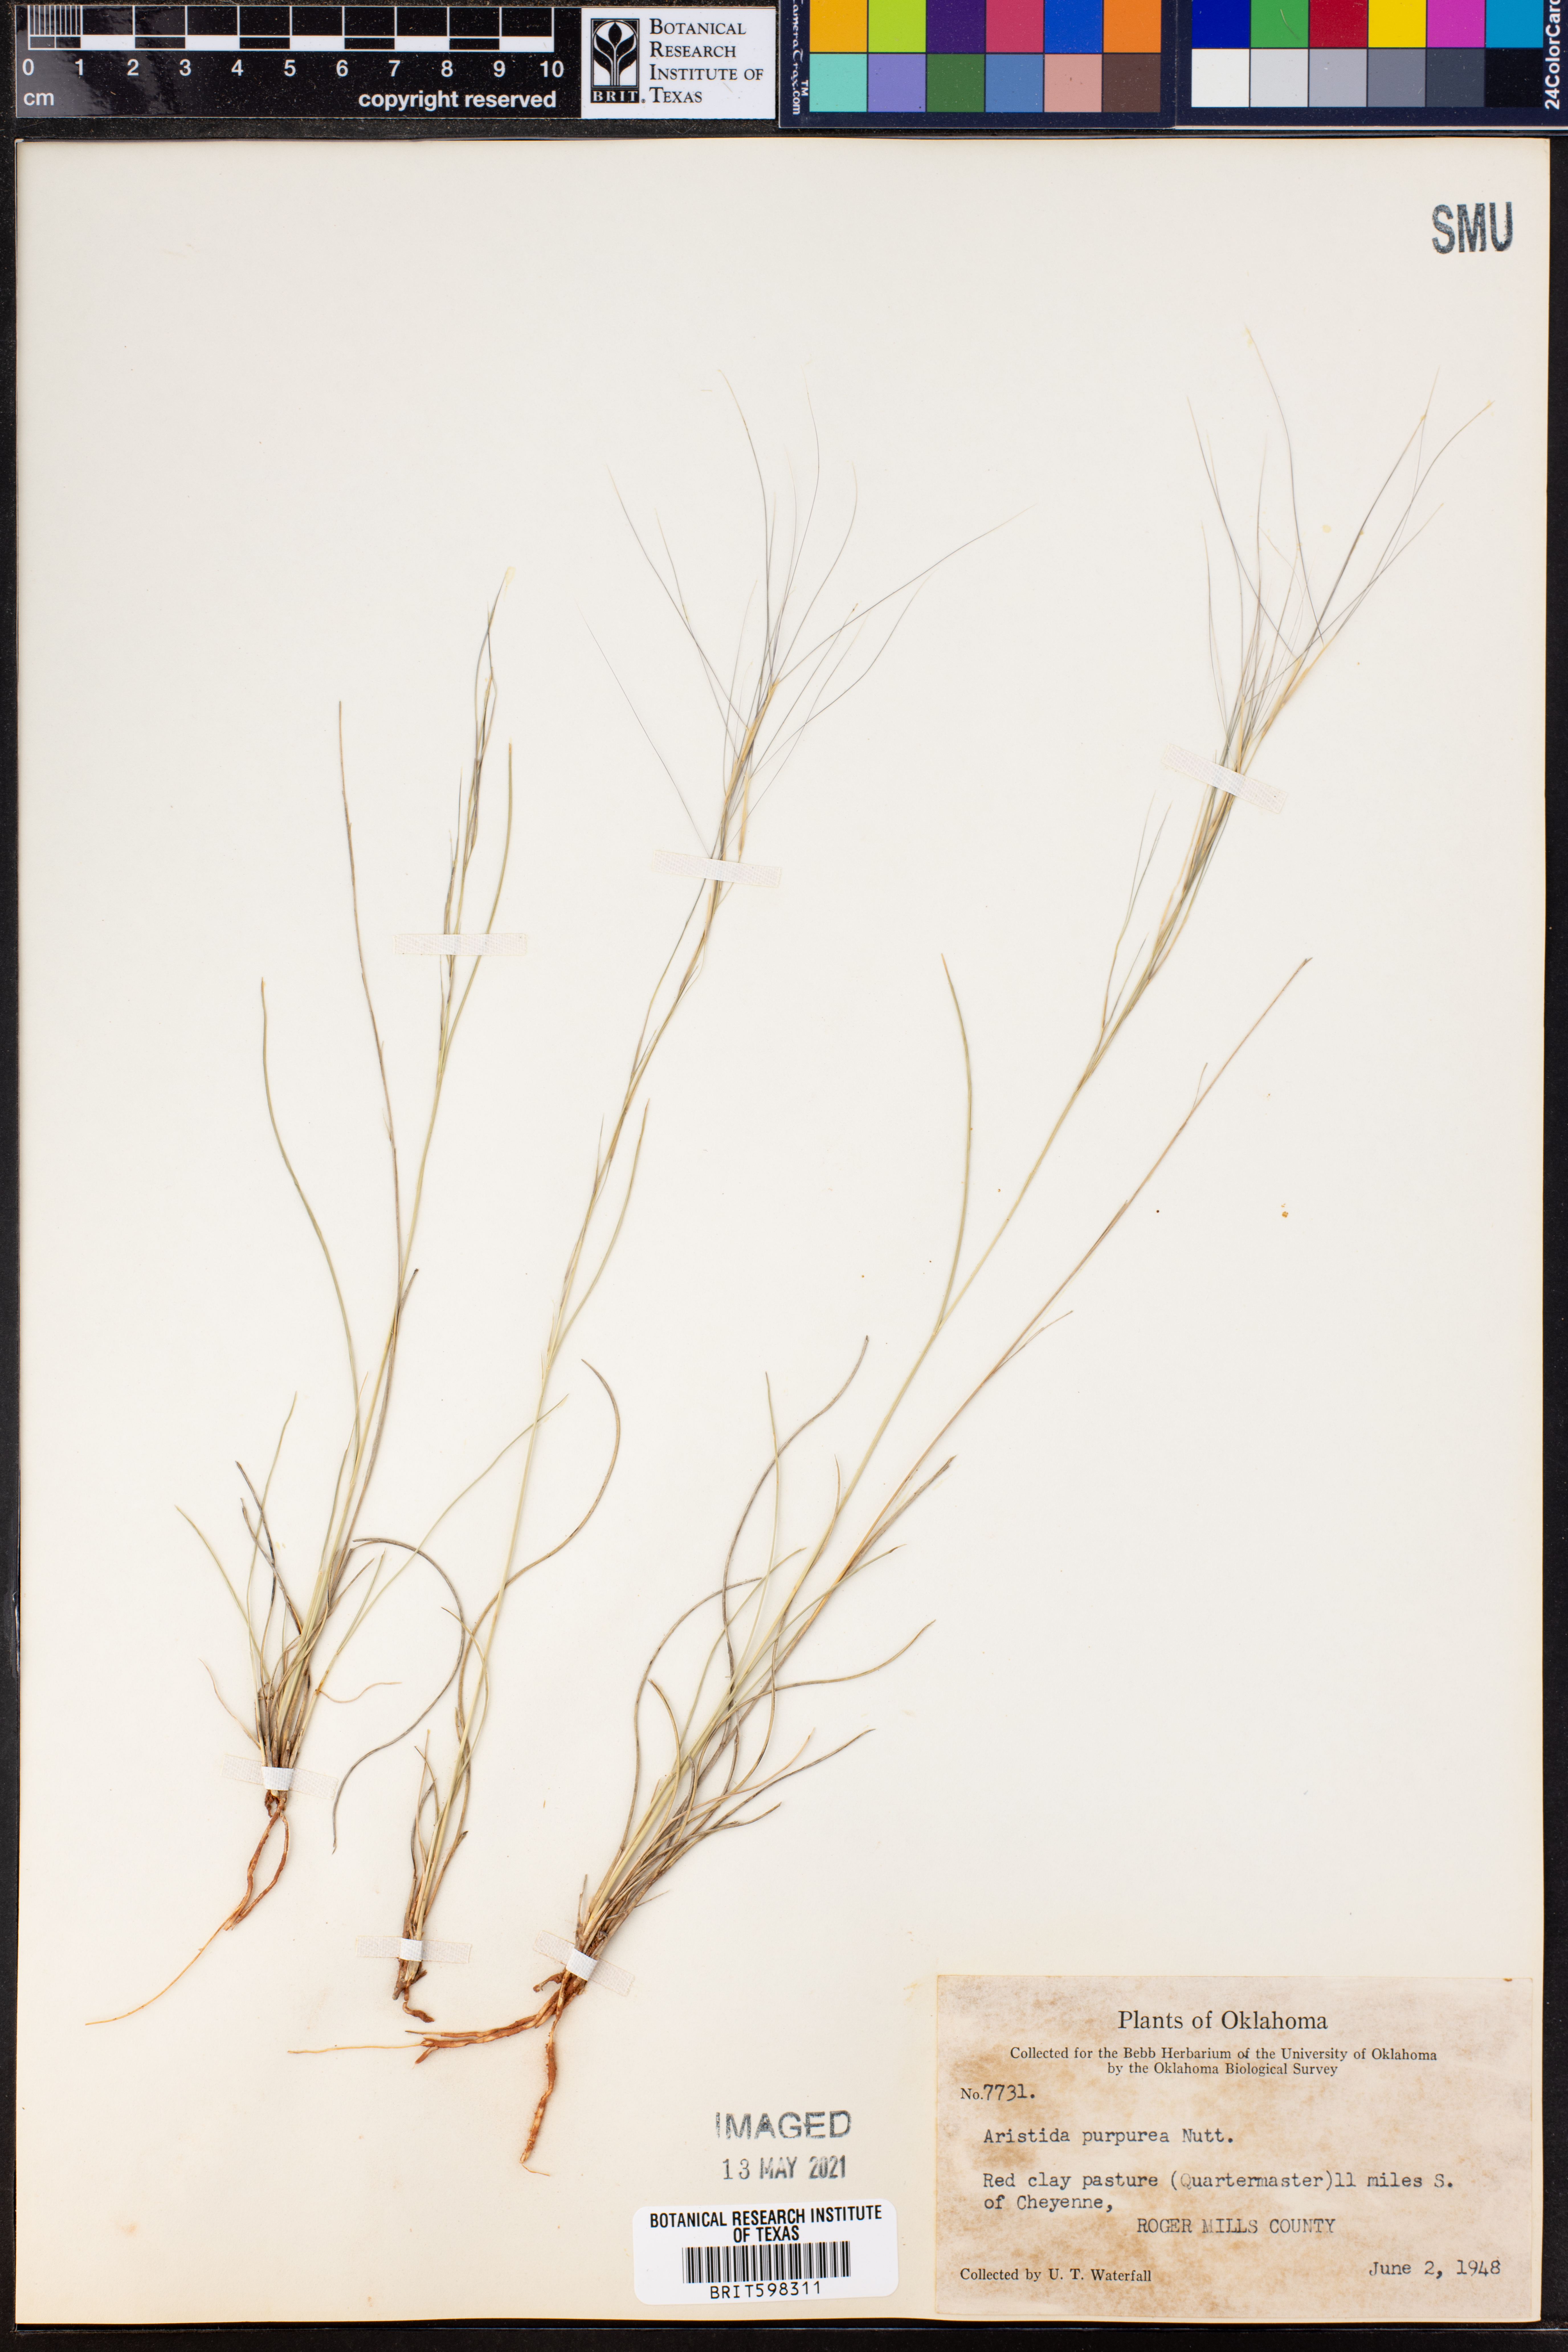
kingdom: Plantae
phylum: Tracheophyta
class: Liliopsida
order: Poales
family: Poaceae
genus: Aristida
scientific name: Aristida purpurea
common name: Purple threeawn
